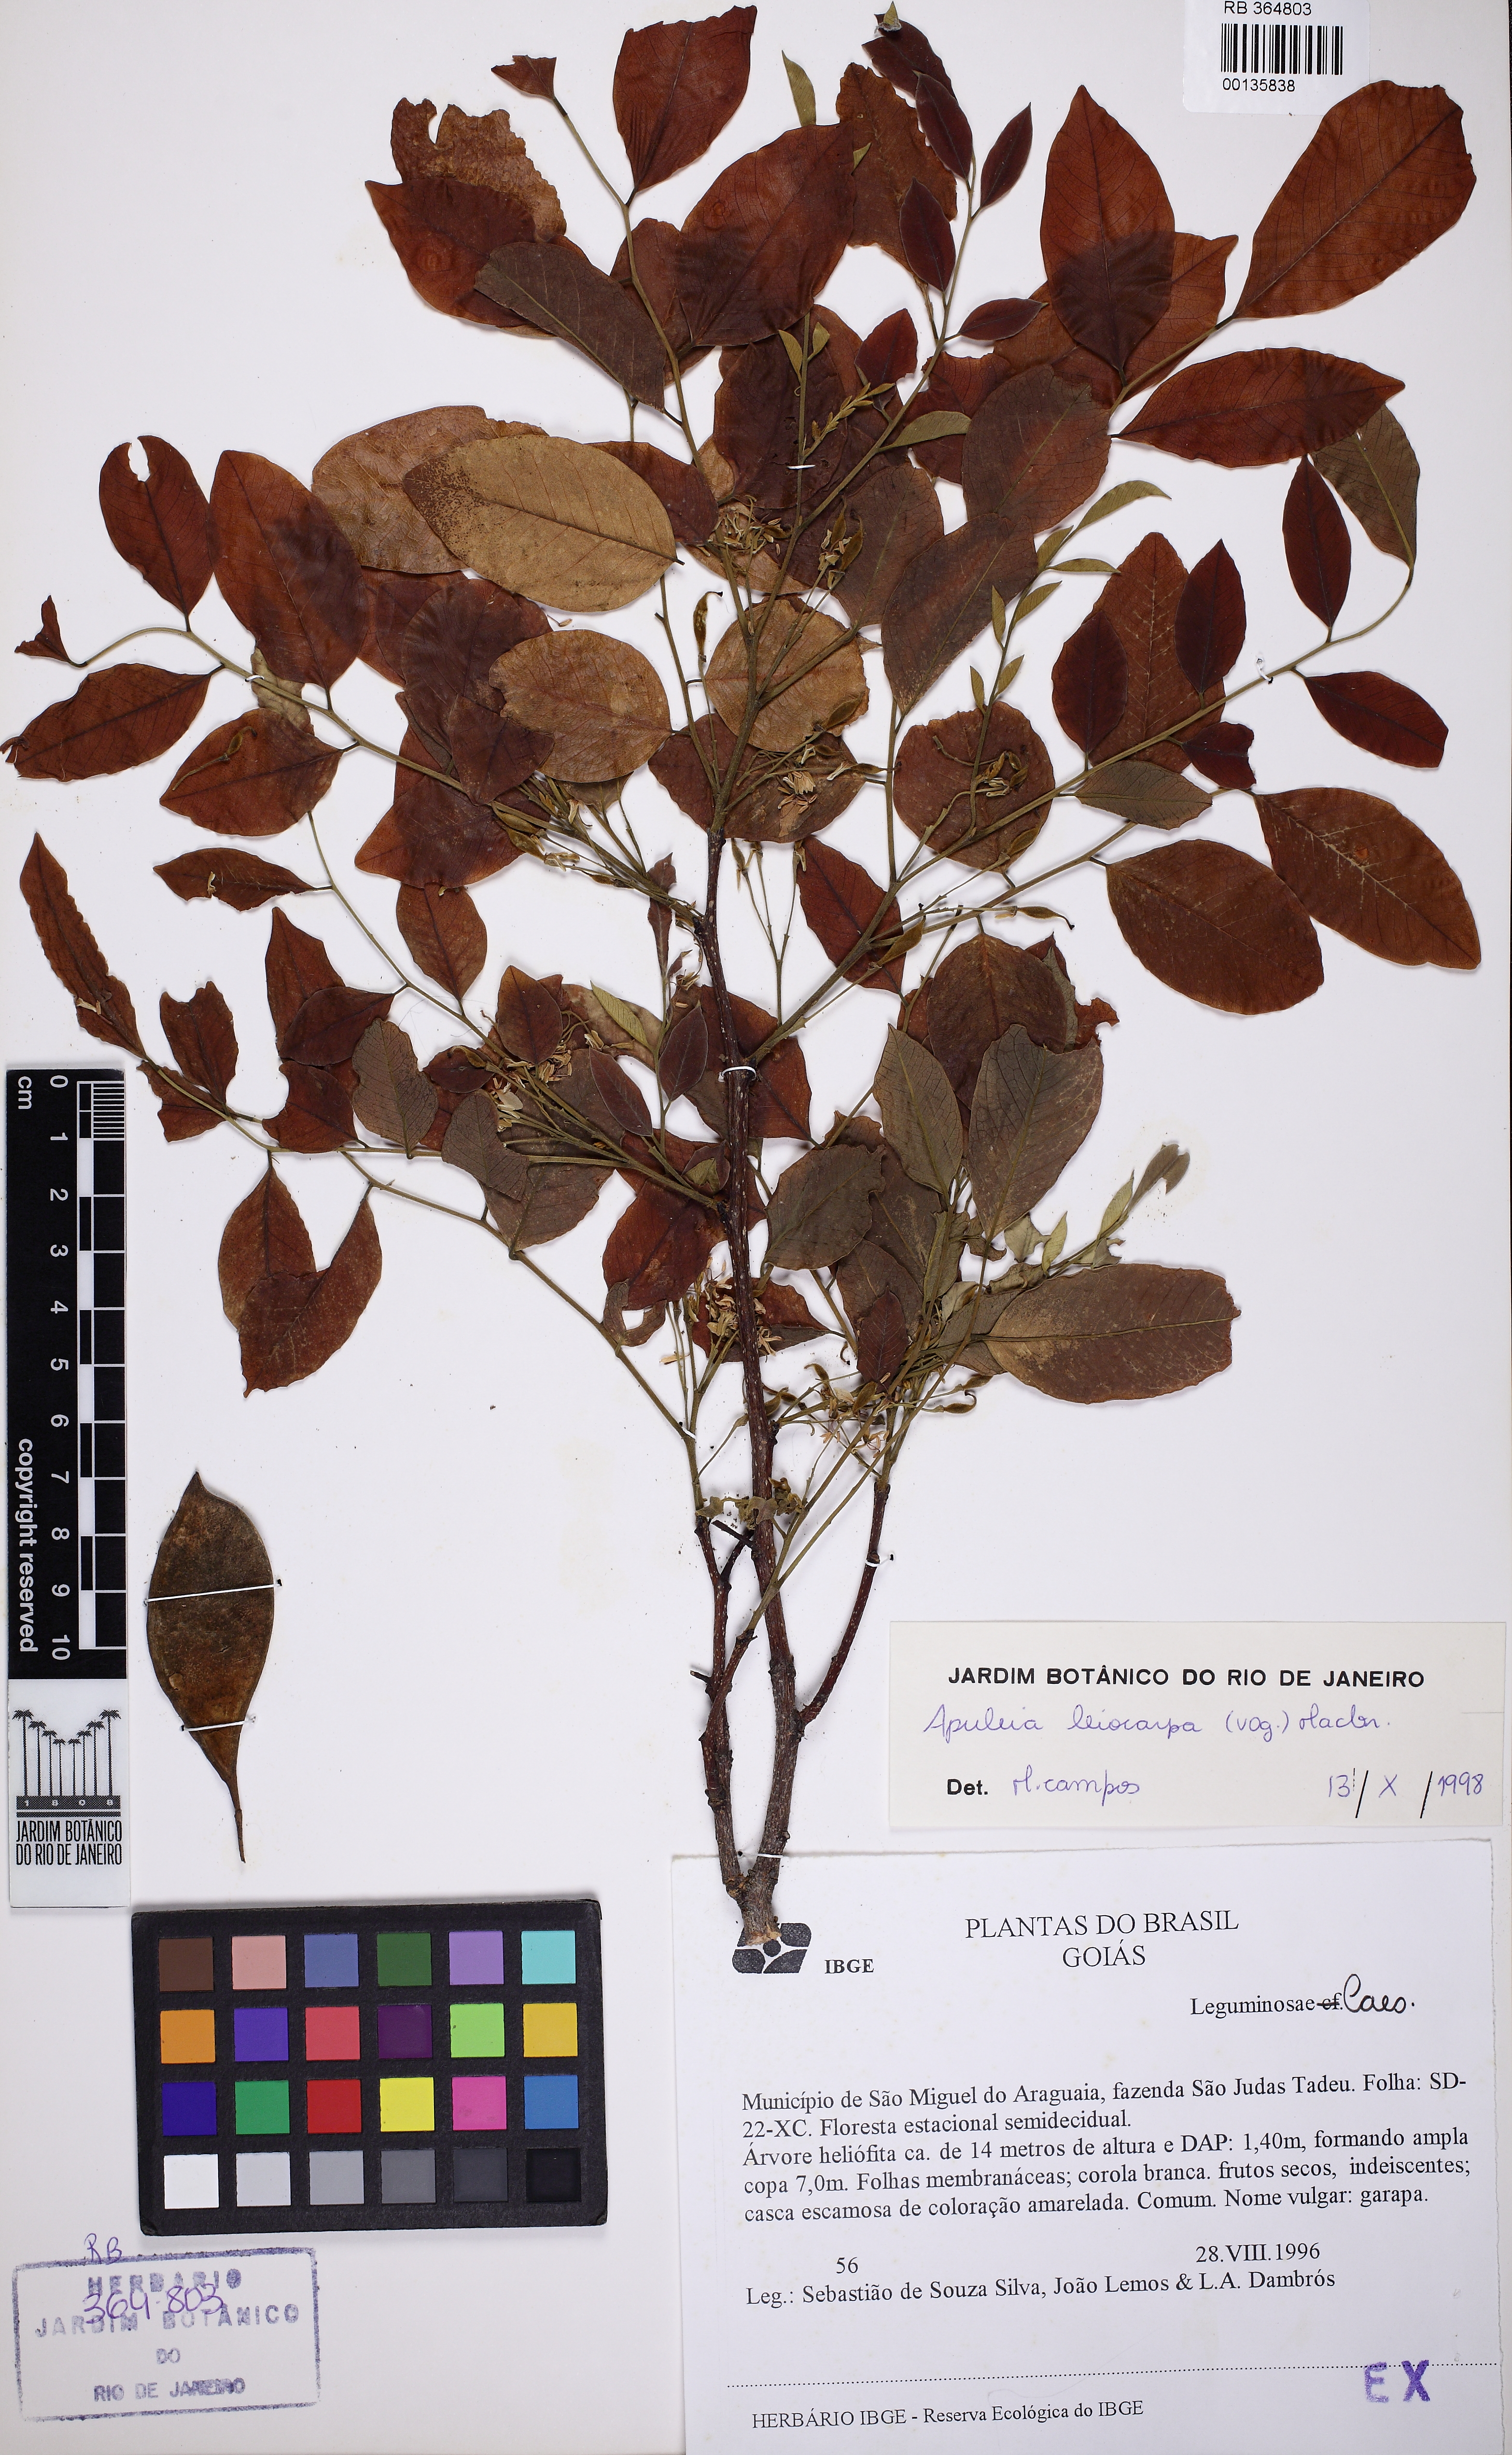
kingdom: Plantae
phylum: Tracheophyta
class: Magnoliopsida
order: Fabales
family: Fabaceae
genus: Apuleia
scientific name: Apuleia leiocarpa
